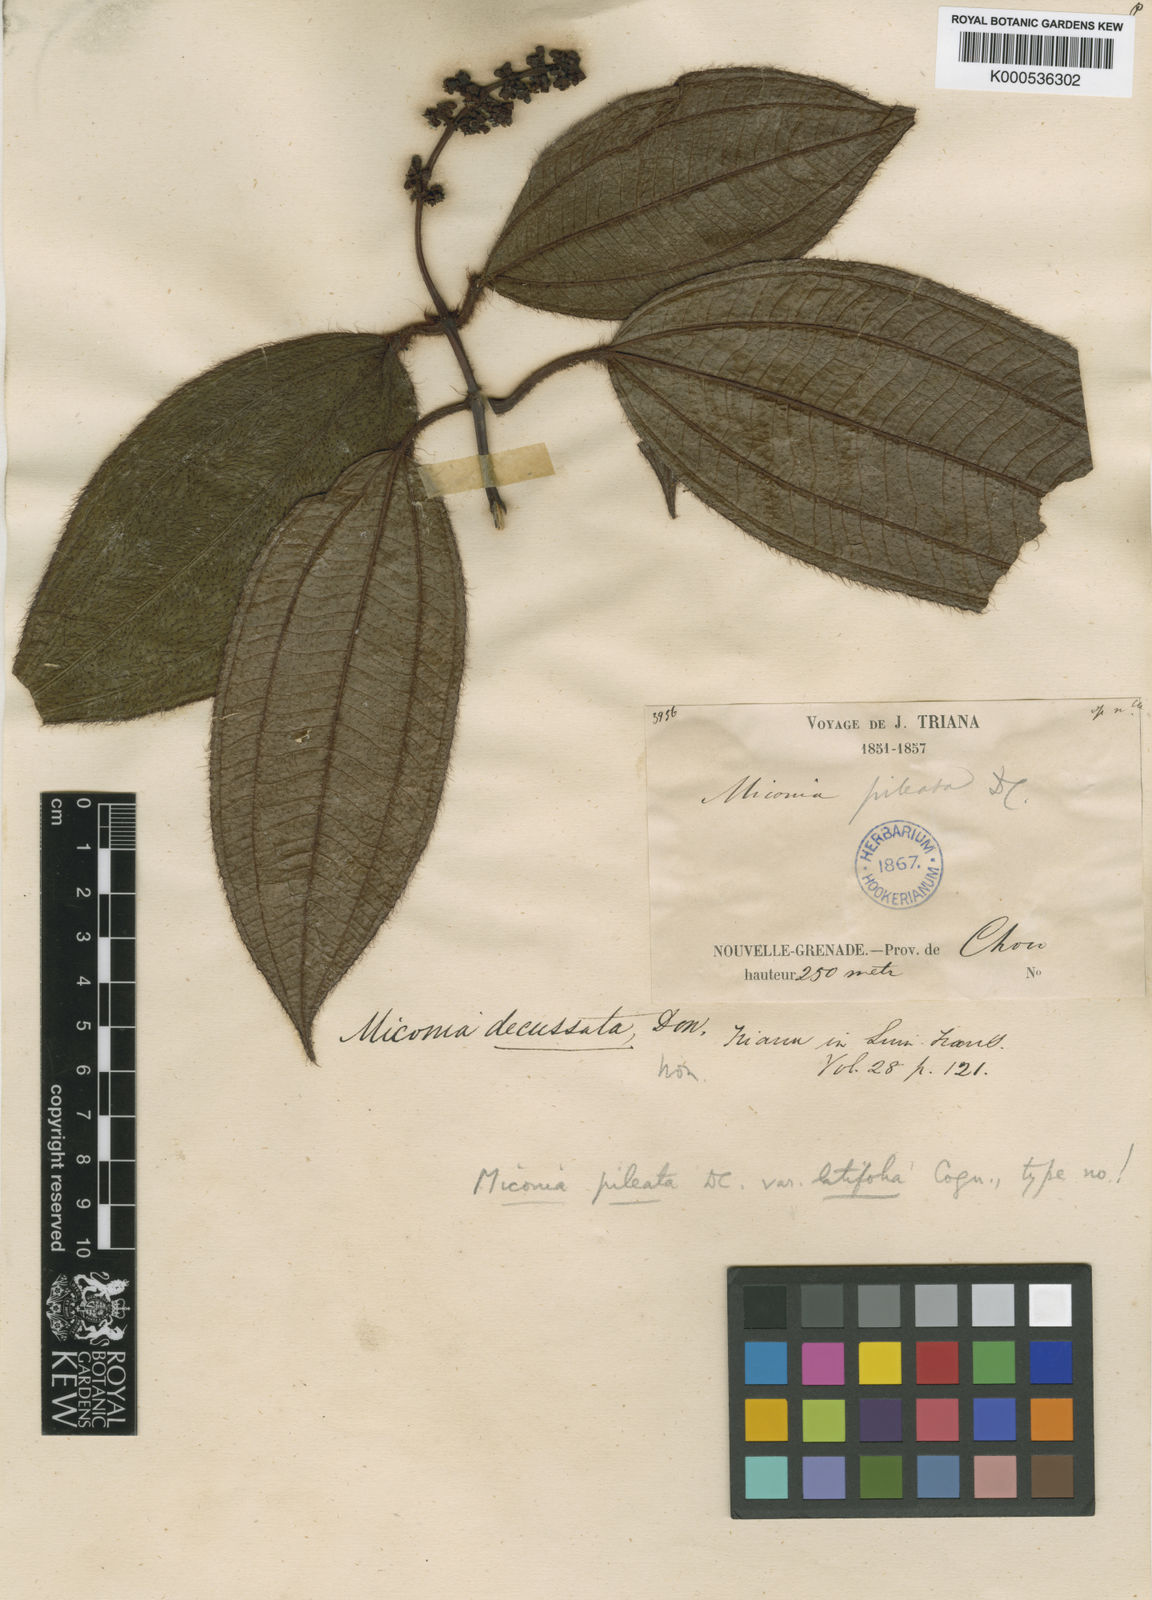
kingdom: Plantae
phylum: Tracheophyta
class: Magnoliopsida
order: Myrtales
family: Melastomataceae
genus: Miconia
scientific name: Miconia pileata
